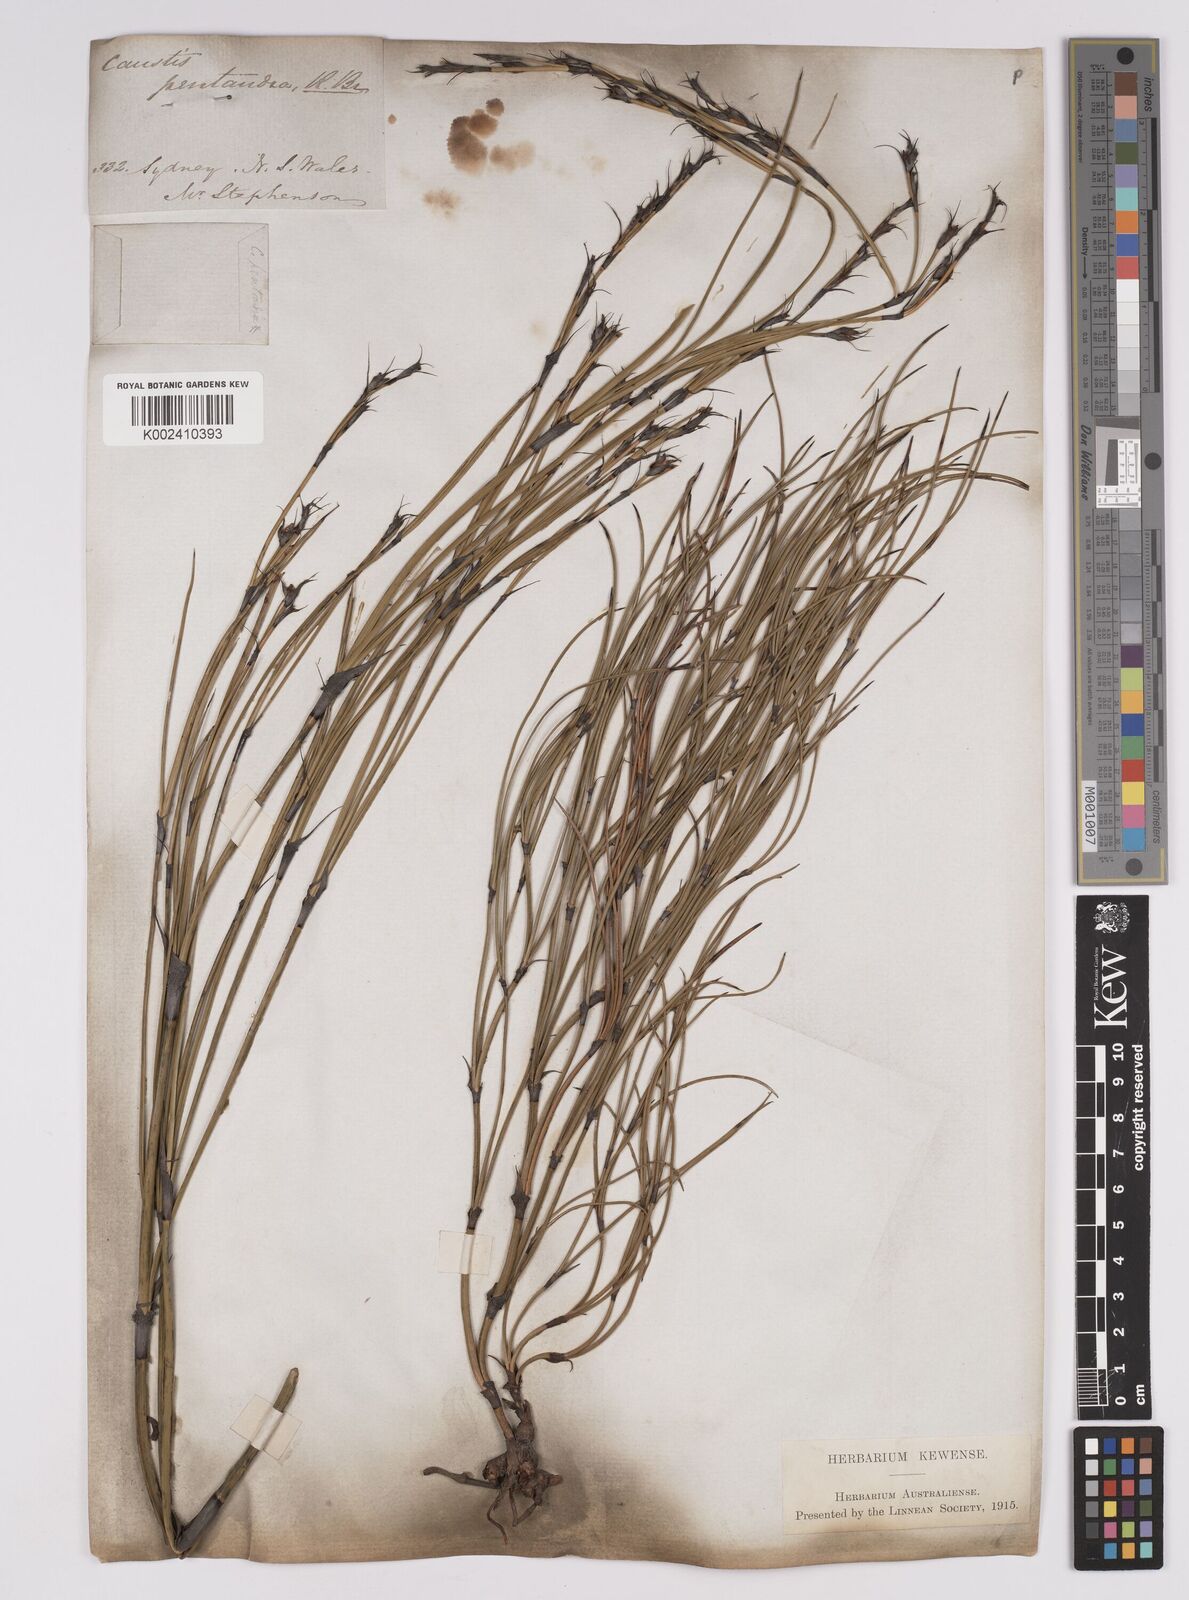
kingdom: Plantae
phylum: Tracheophyta
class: Liliopsida
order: Poales
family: Cyperaceae
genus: Caustis
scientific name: Caustis pentandra
